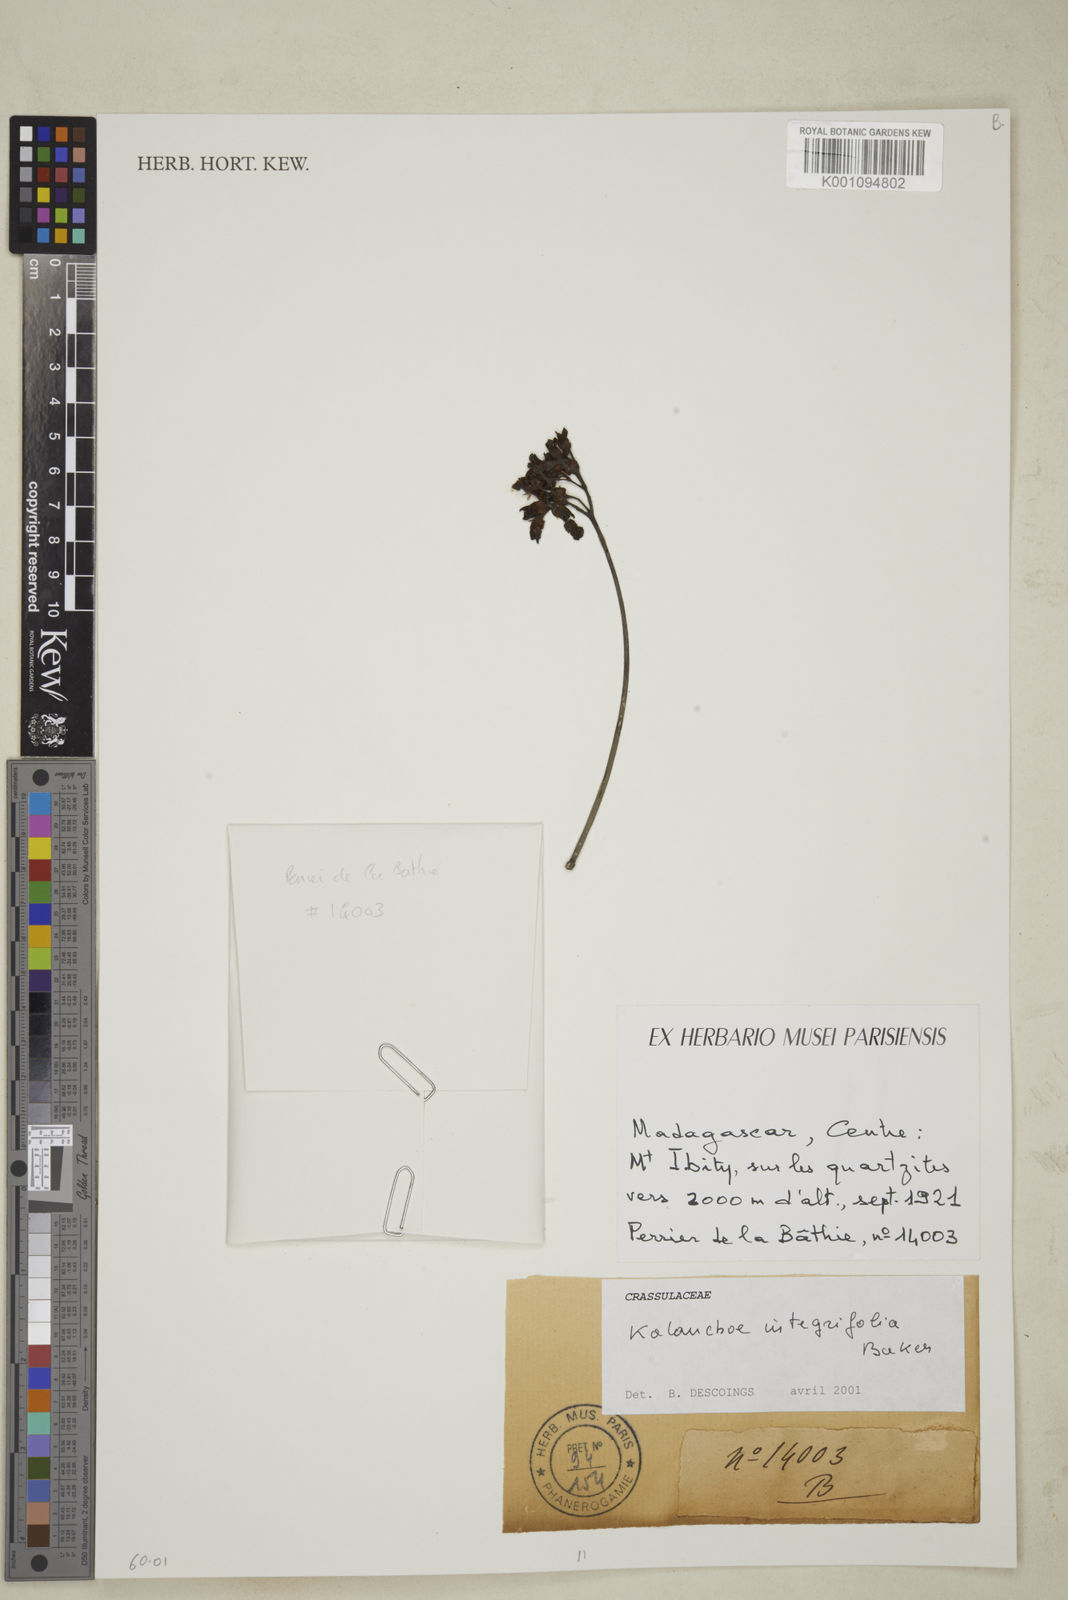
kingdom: Plantae
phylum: Tracheophyta
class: Magnoliopsida
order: Saxifragales
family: Crassulaceae
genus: Kalanchoe
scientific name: Kalanchoe integrifolia
